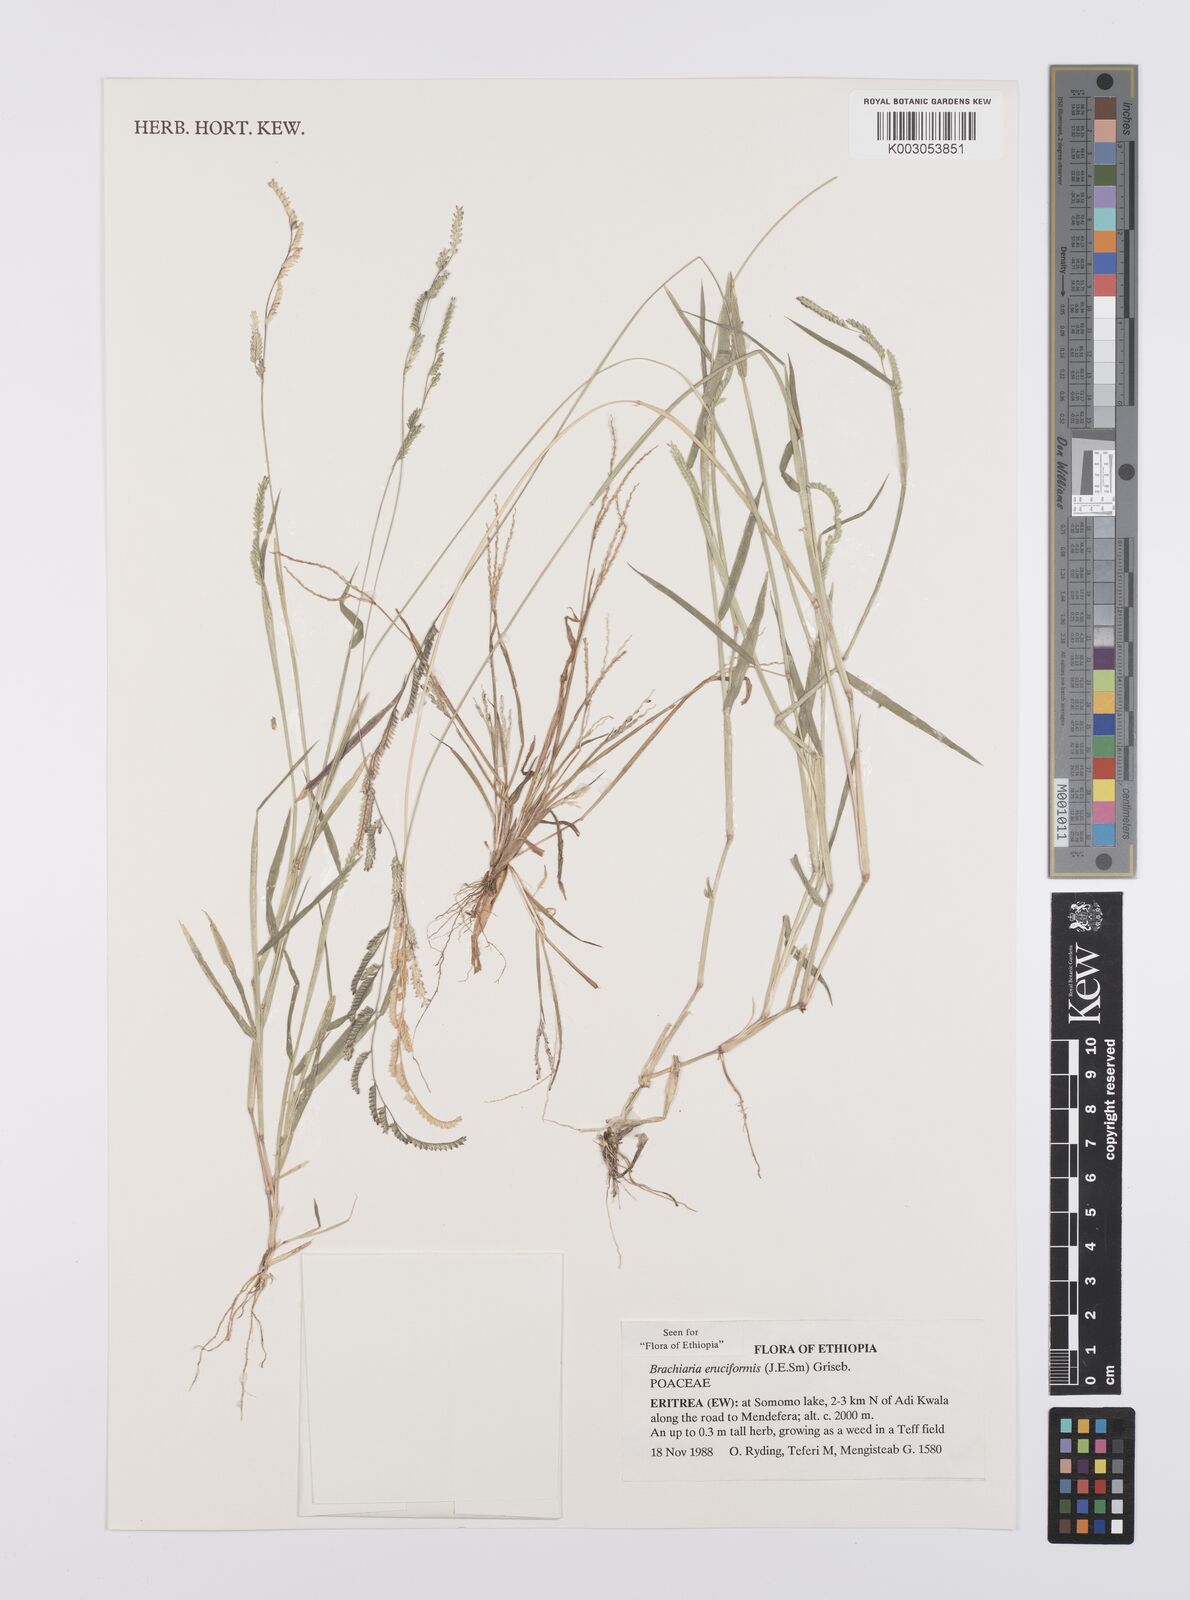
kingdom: Plantae
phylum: Tracheophyta
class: Liliopsida
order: Poales
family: Poaceae
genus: Moorochloa
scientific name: Moorochloa eruciformis
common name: Sweet signalgrass
